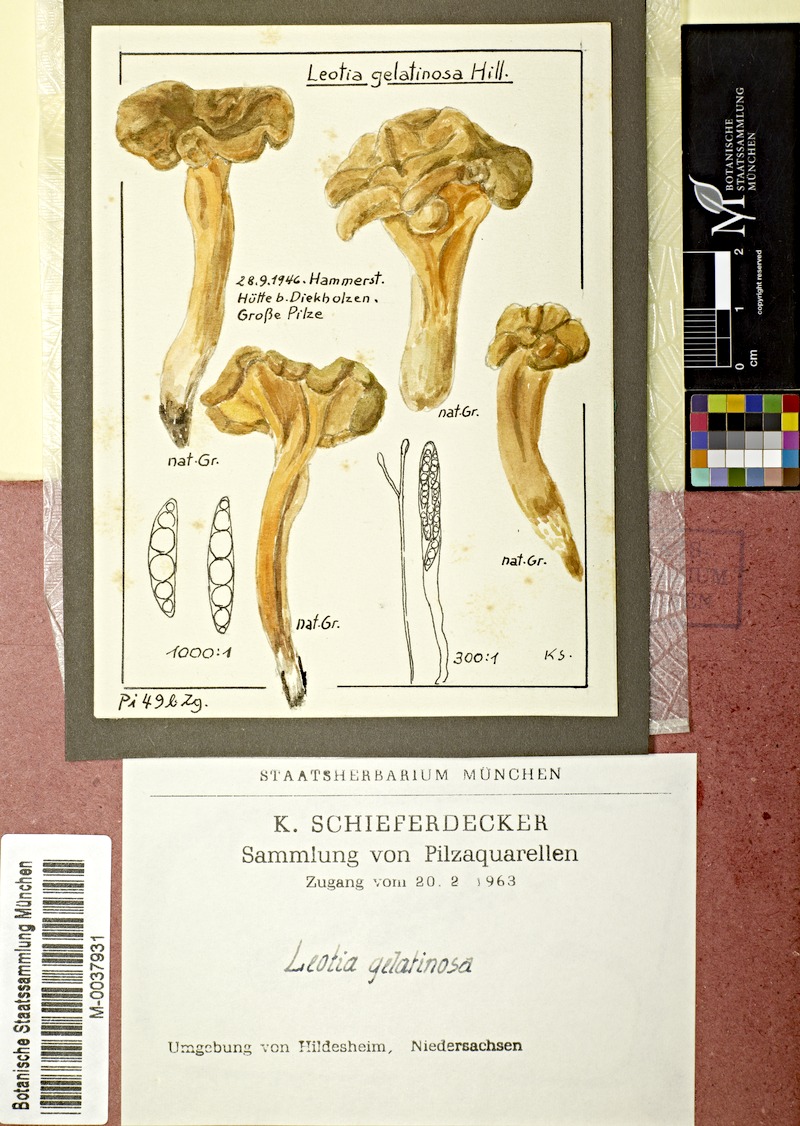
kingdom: Fungi
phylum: Ascomycota
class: Leotiomycetes
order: Leotiales
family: Leotiaceae
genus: Leotia
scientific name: Leotia lubrica
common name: Jellybaby
